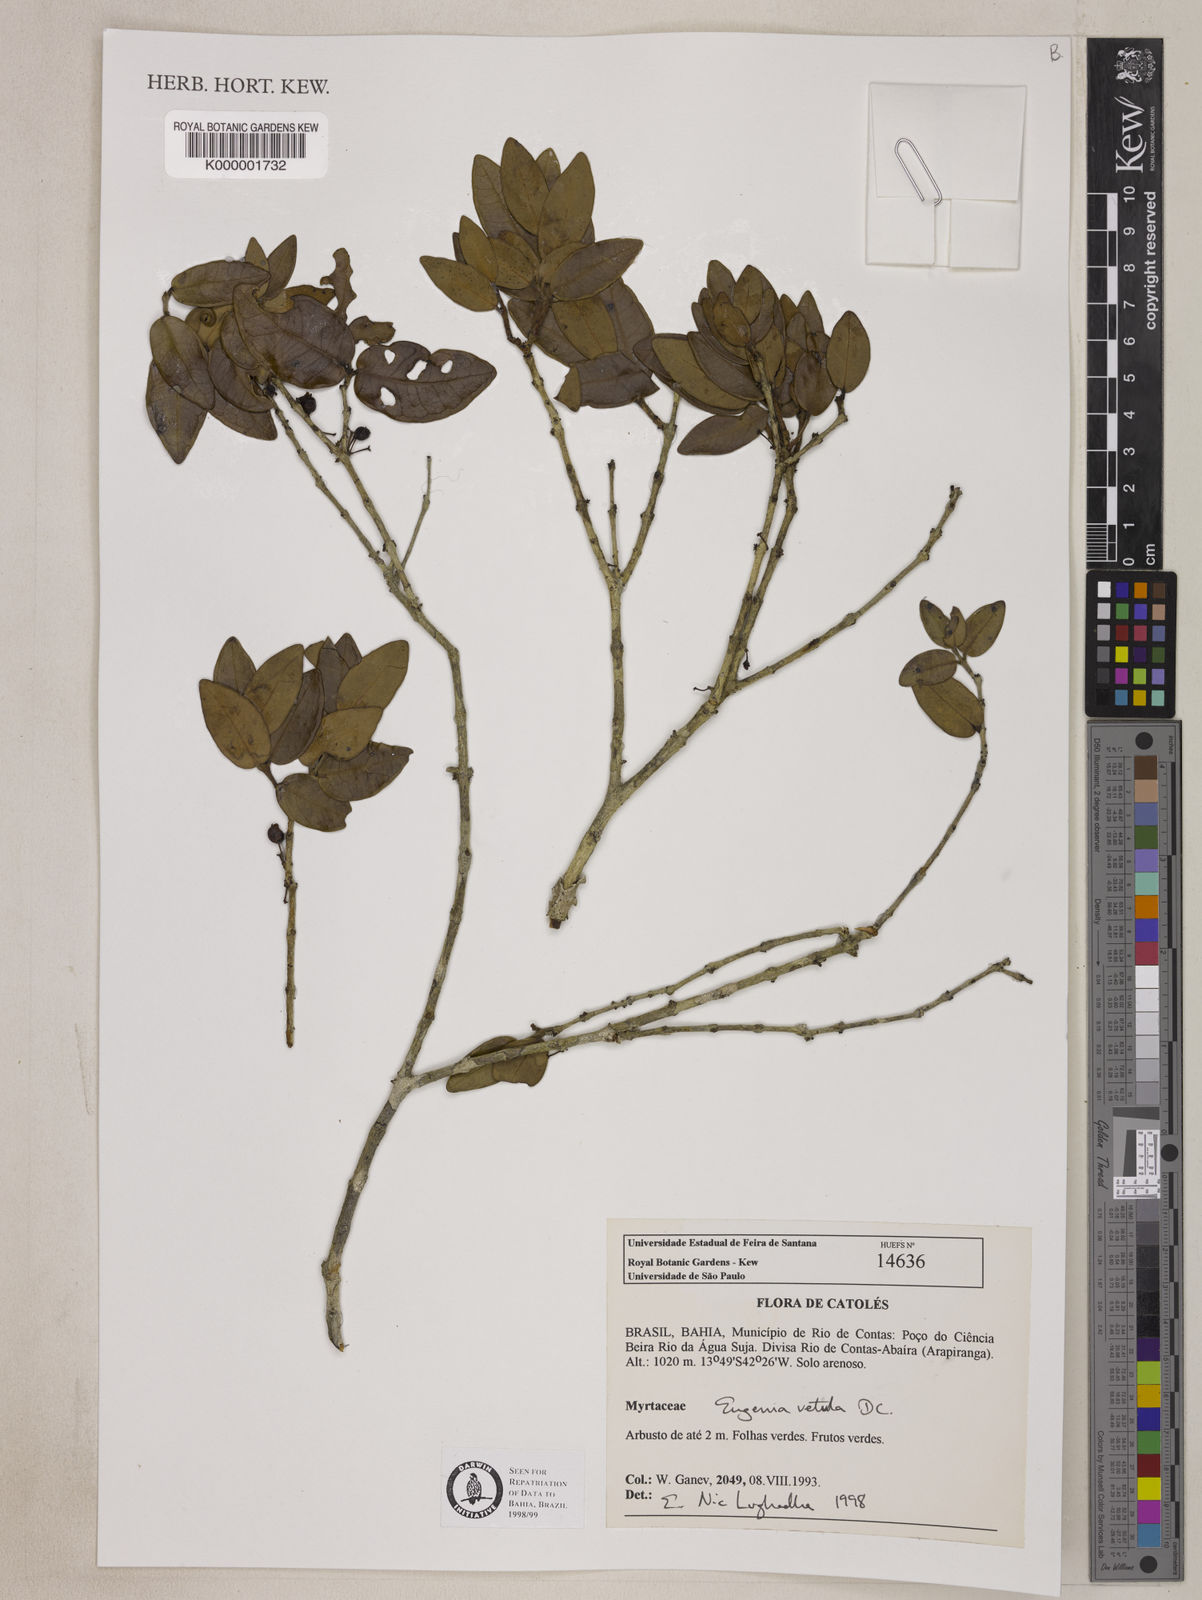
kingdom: Plantae
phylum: Tracheophyta
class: Magnoliopsida
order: Myrtales
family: Myrtaceae
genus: Eugenia
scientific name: Eugenia vetula
